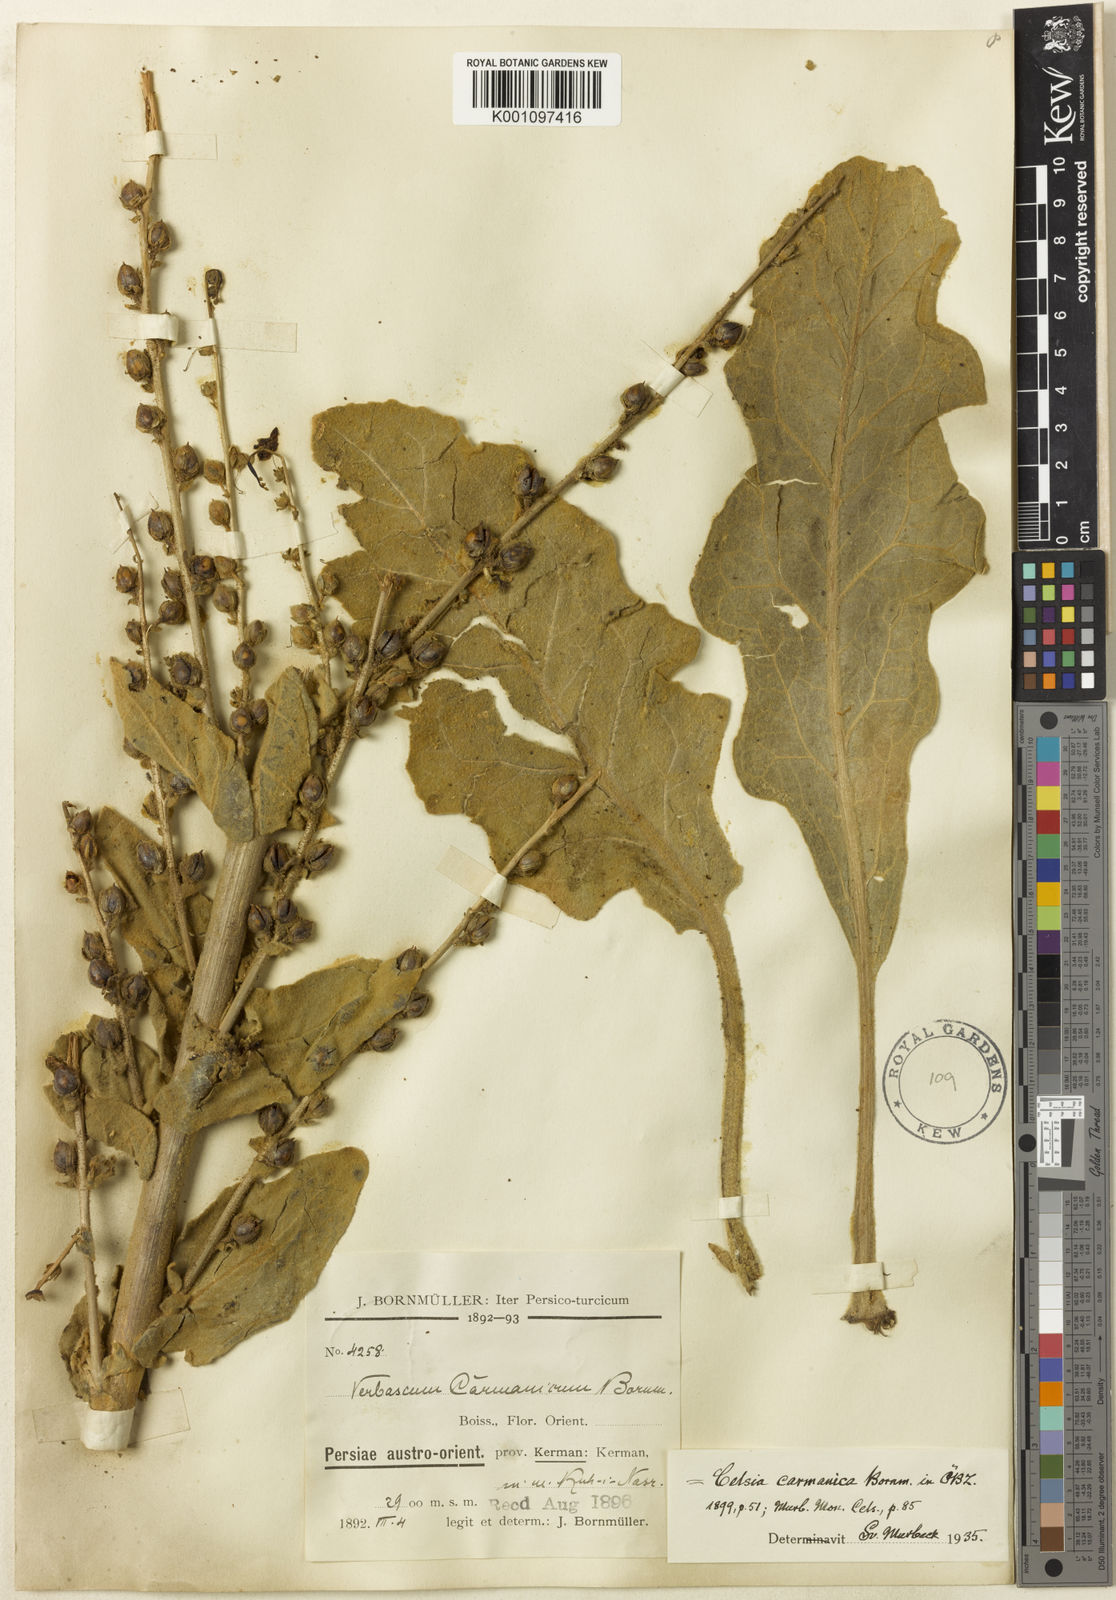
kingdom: Plantae
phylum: Tracheophyta
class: Magnoliopsida
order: Lamiales
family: Scrophulariaceae
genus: Verbascum
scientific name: Verbascum carmanicum
